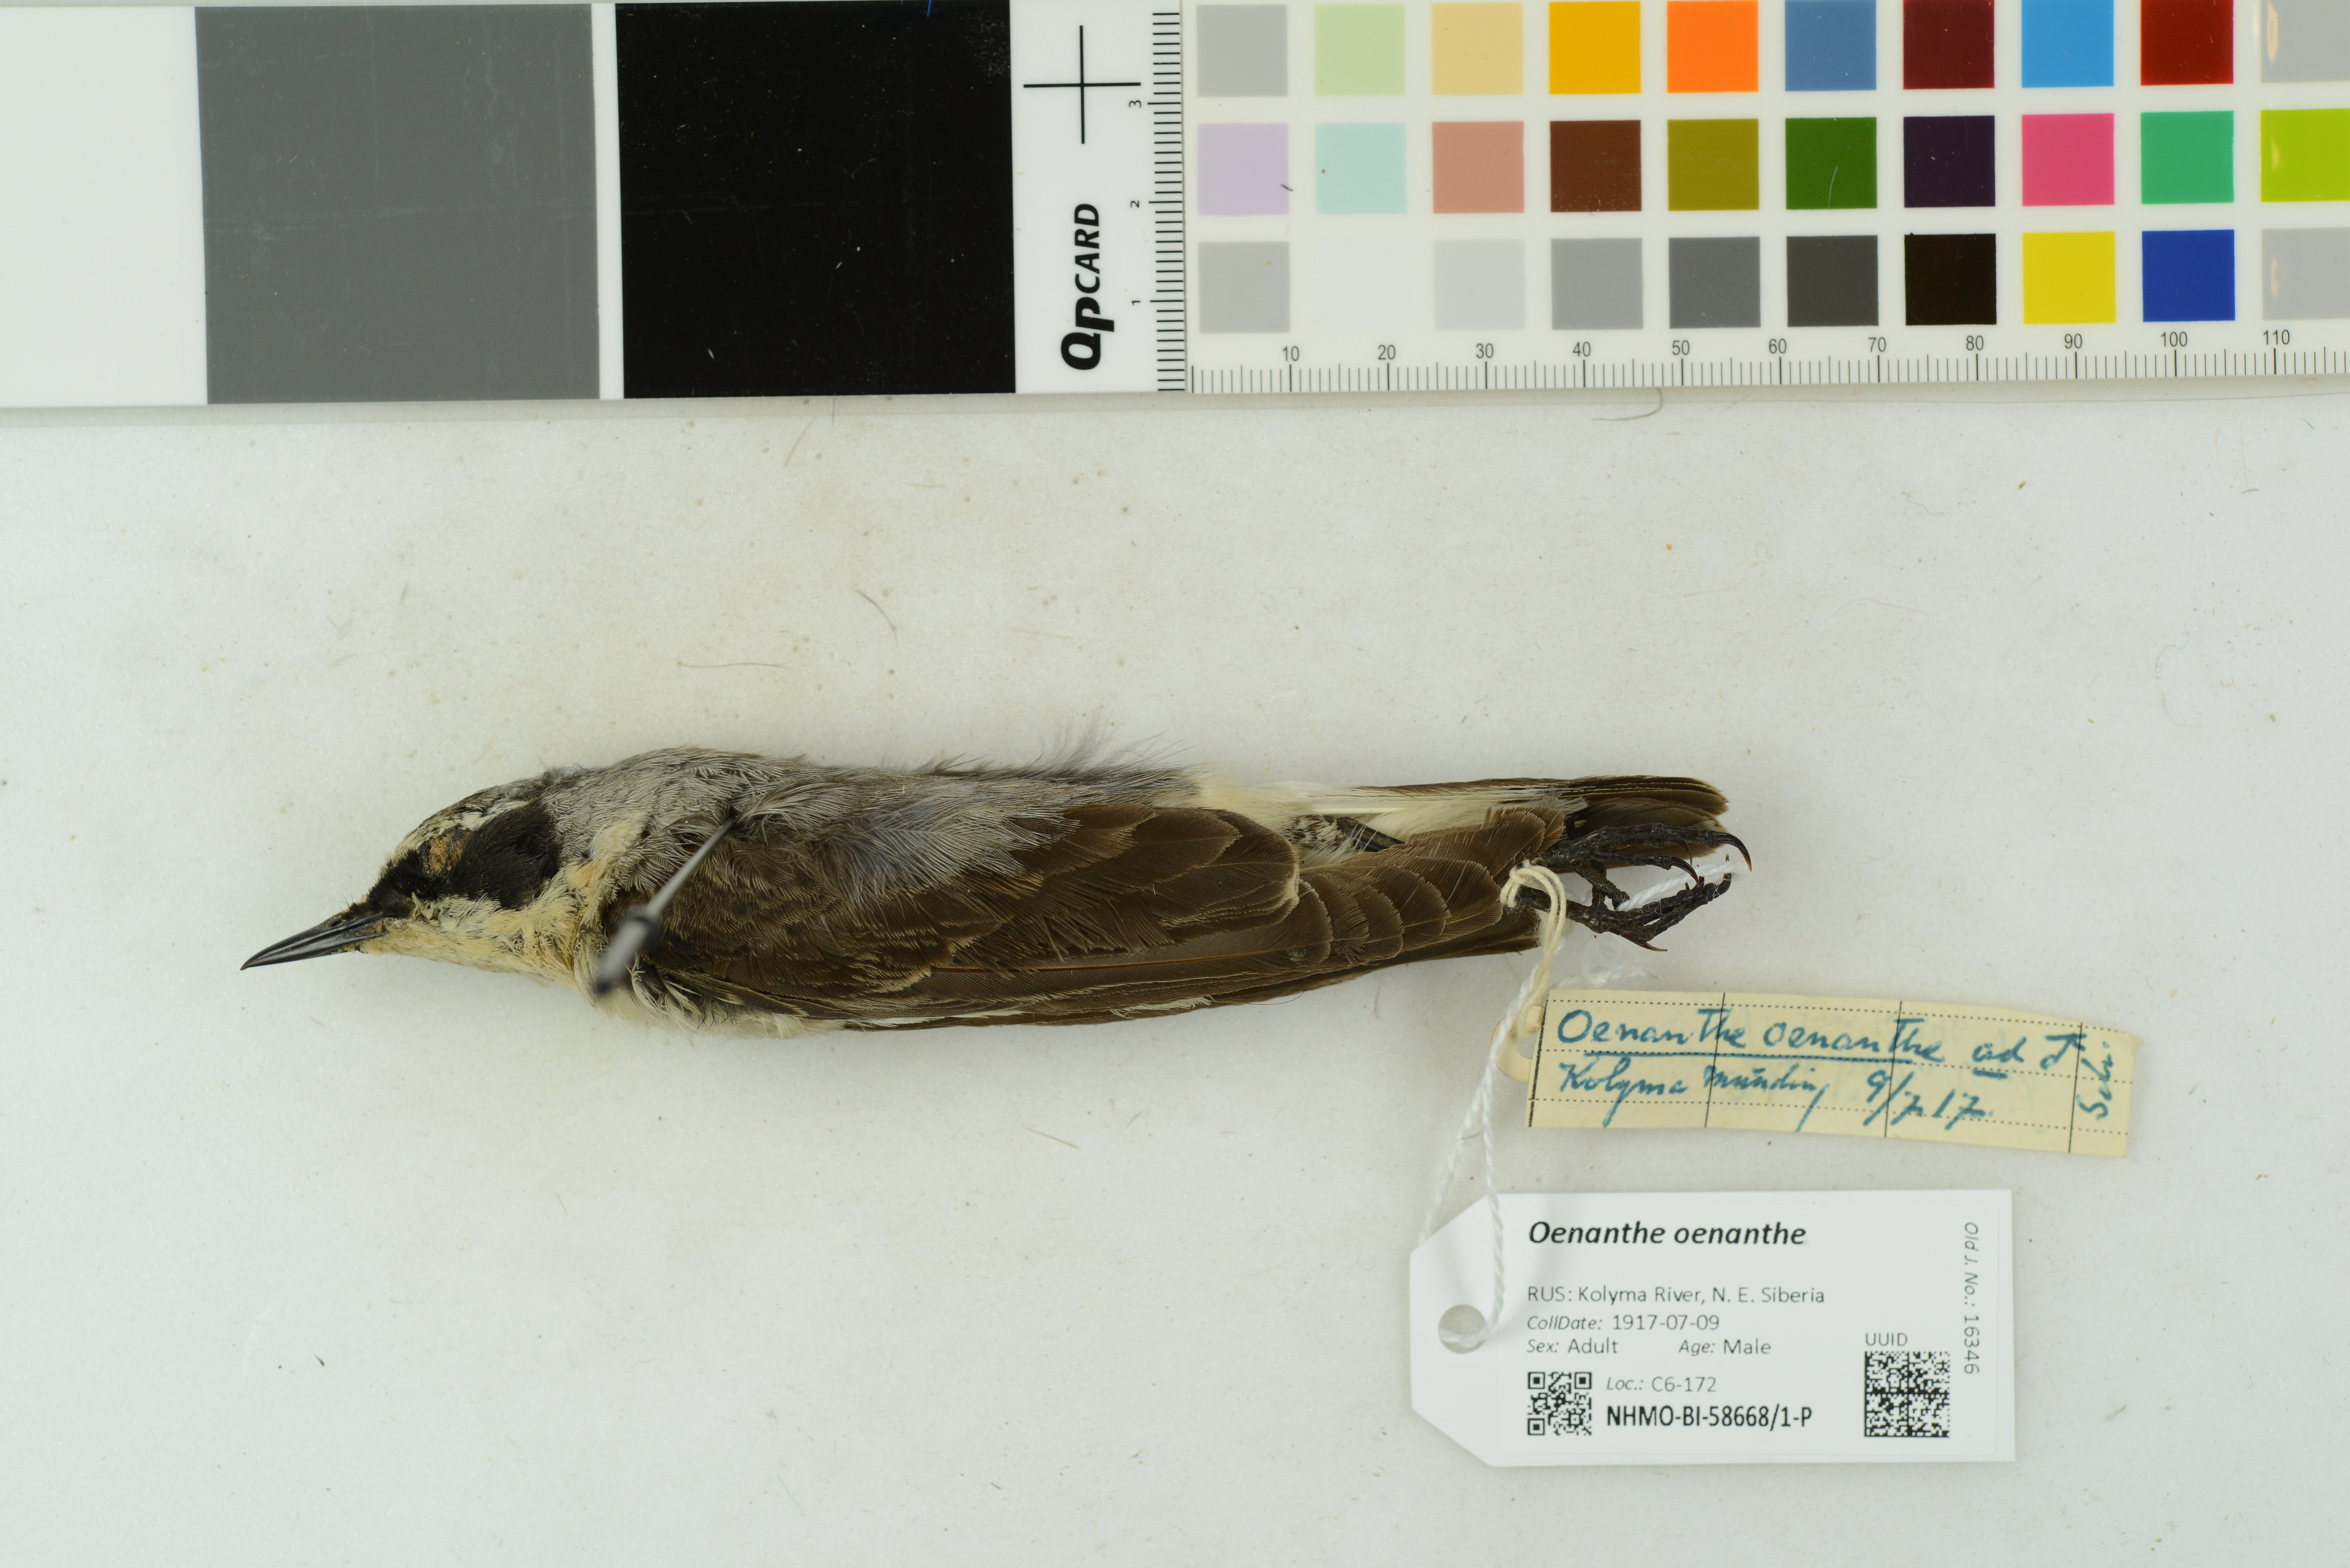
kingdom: Animalia
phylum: Chordata
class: Aves
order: Passeriformes
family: Muscicapidae
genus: Oenanthe
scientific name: Oenanthe oenanthe
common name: Northern wheatear
